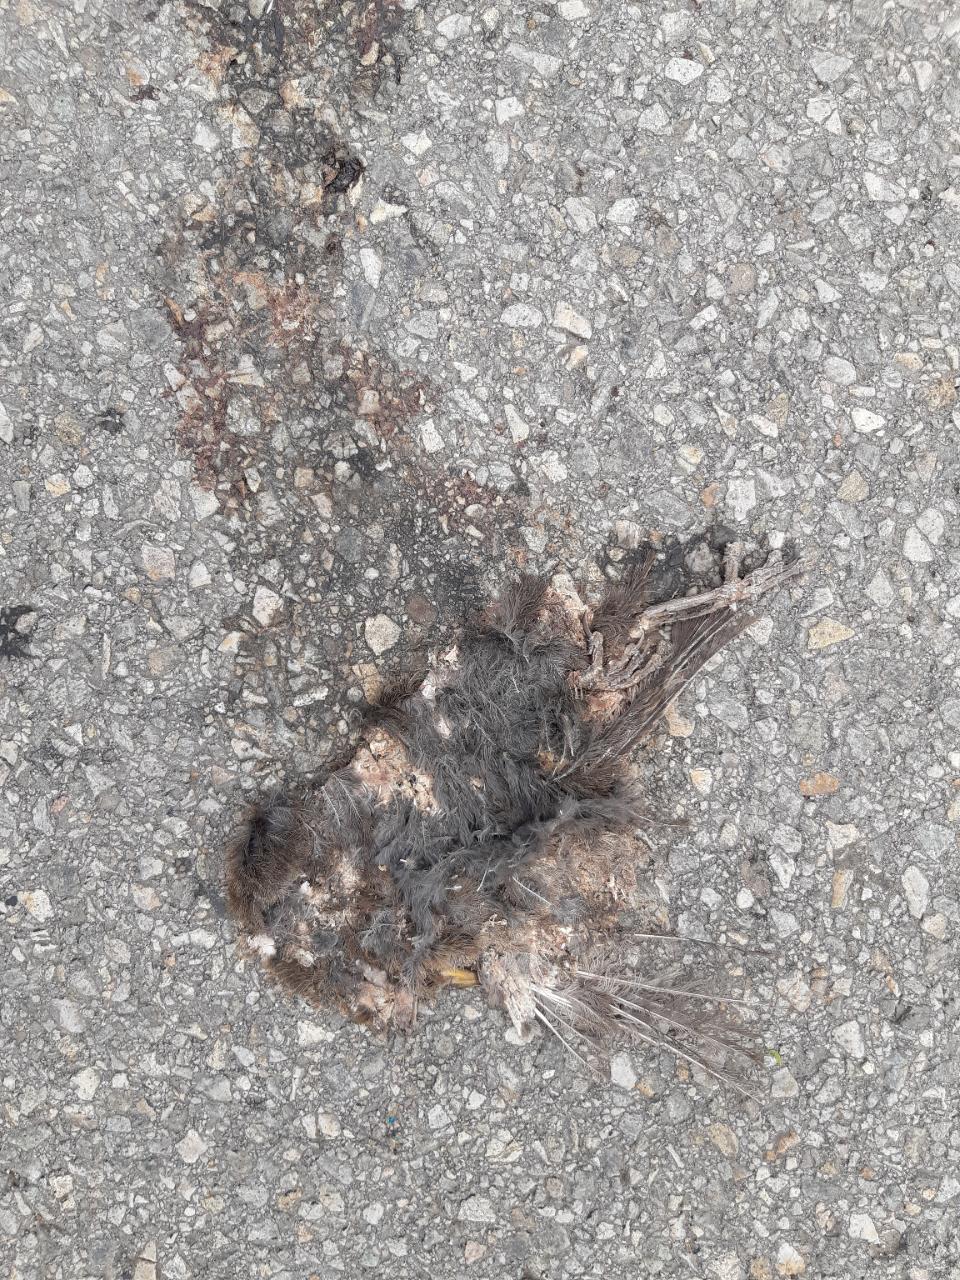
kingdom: Animalia
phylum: Chordata
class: Aves
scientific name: Aves
